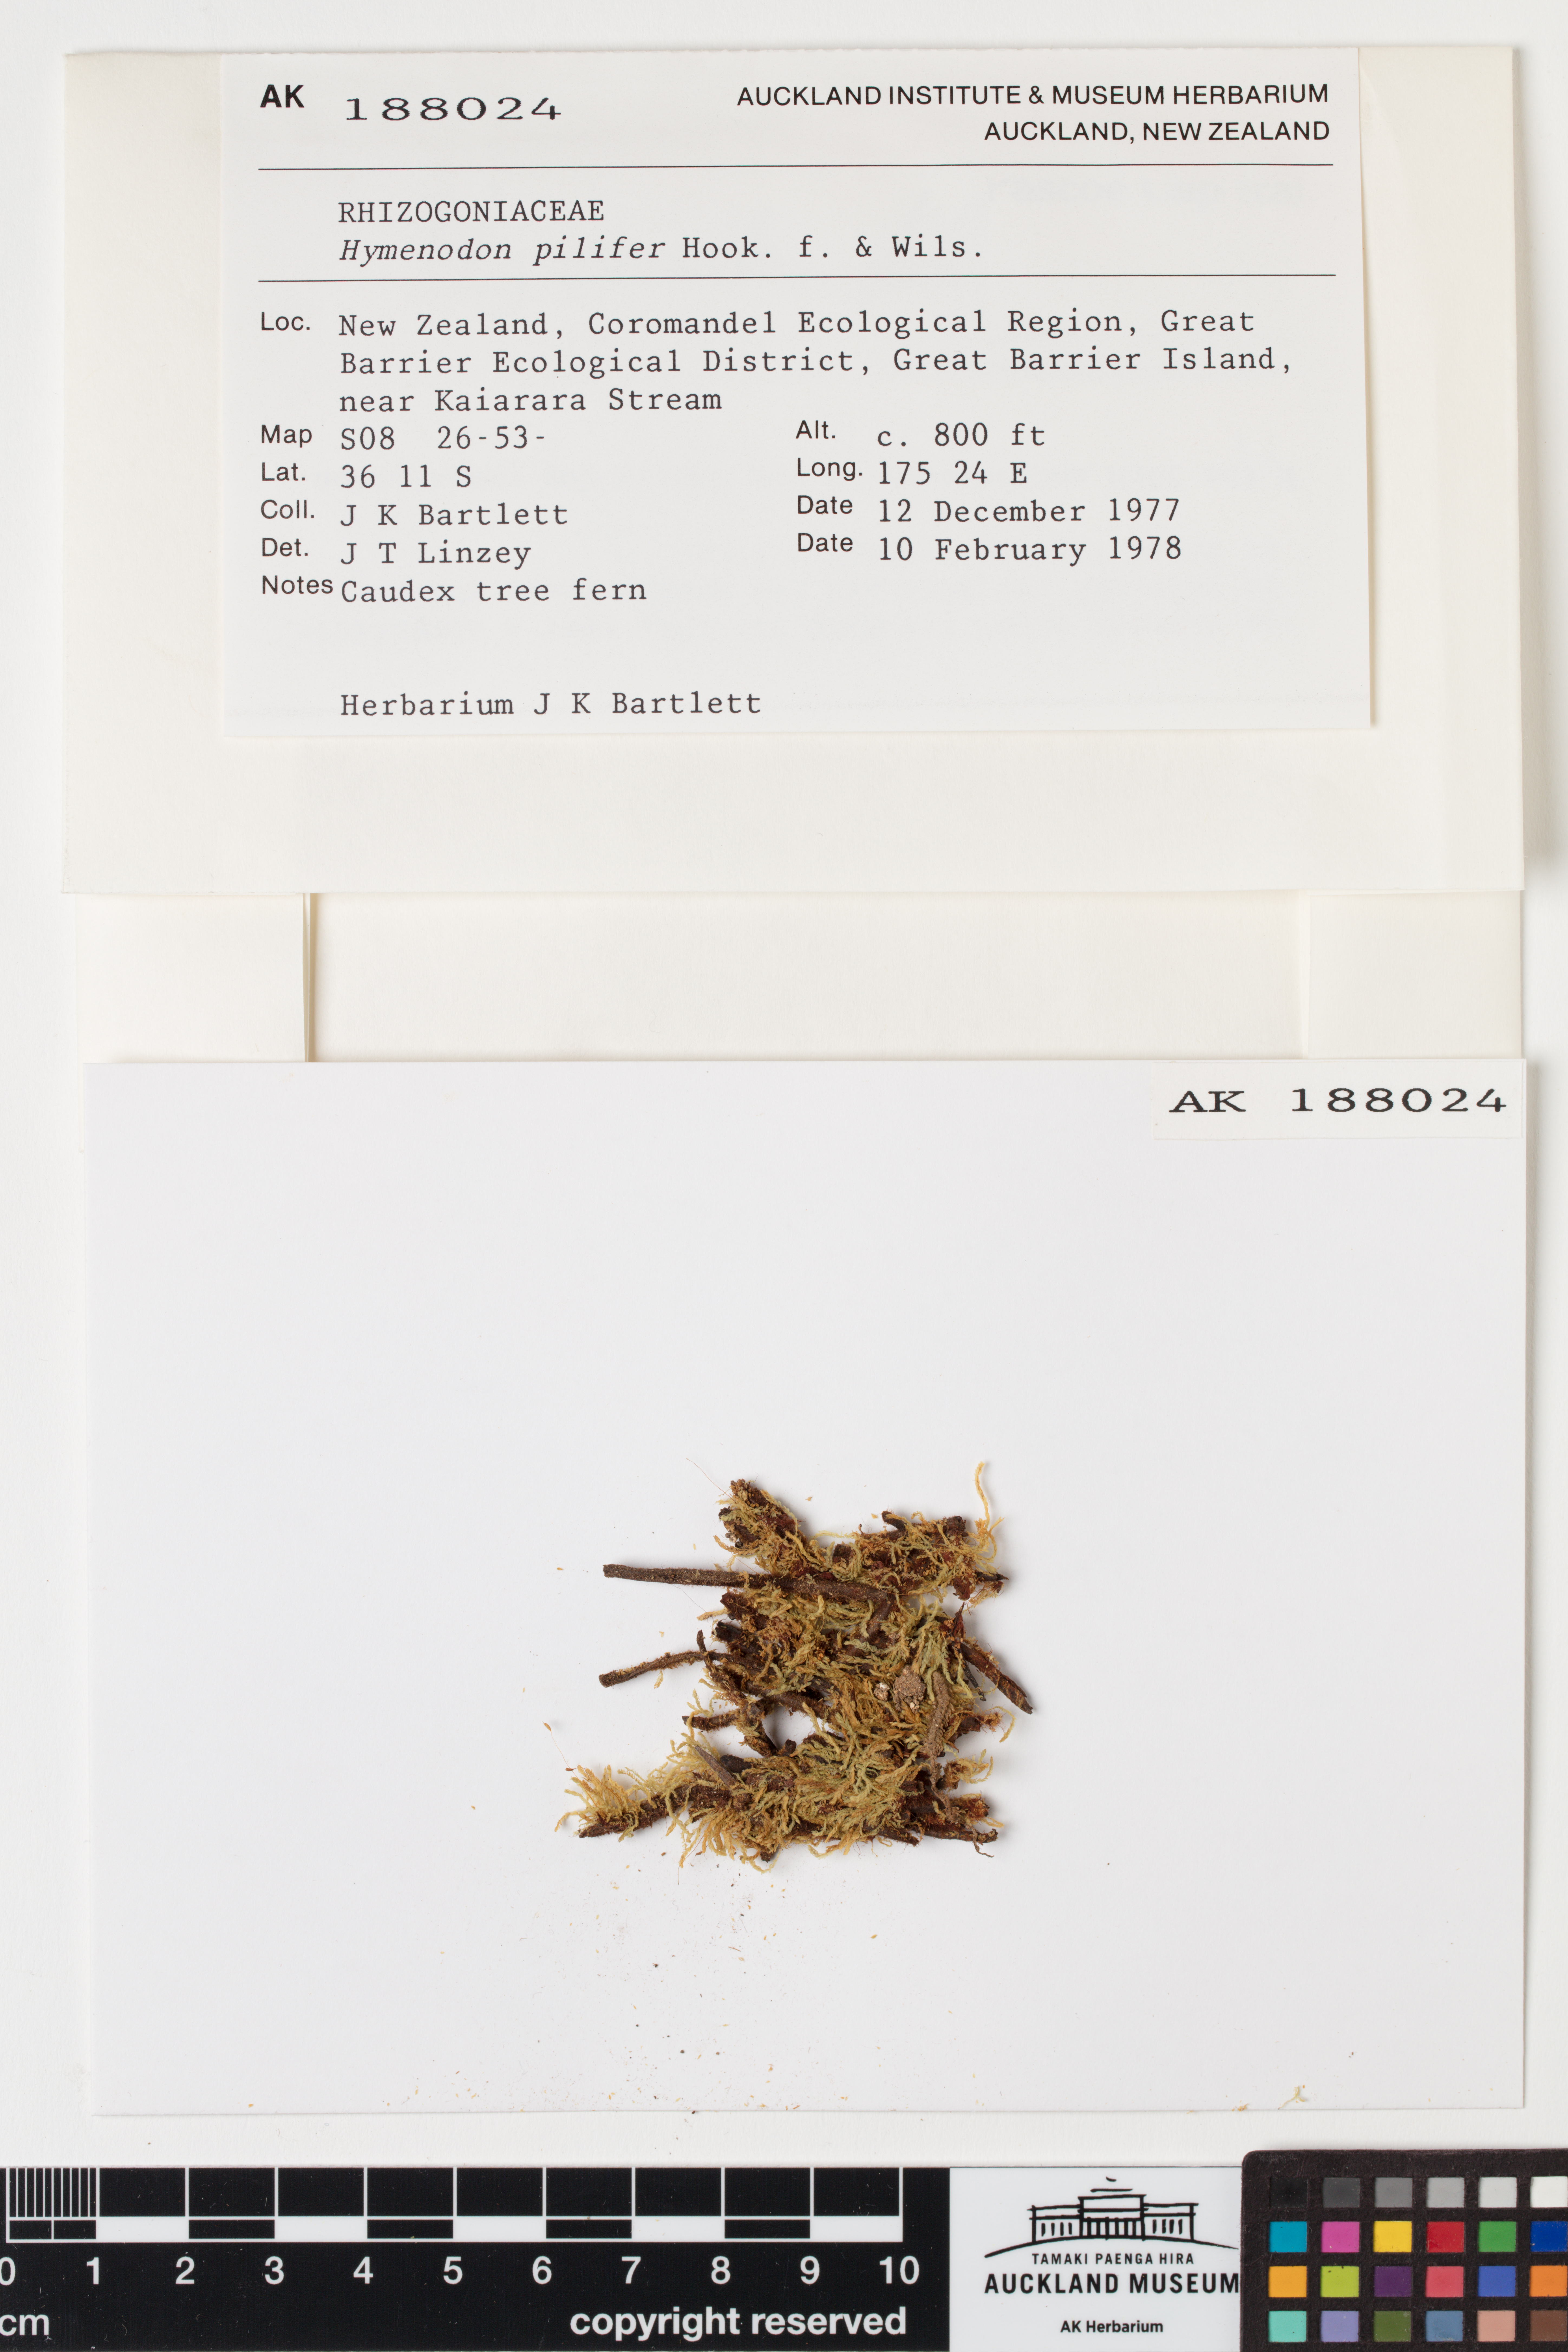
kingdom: Plantae
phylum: Bryophyta
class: Bryopsida
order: Orthodontiales
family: Orthodontiaceae
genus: Hymenodon
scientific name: Hymenodon pilifer
